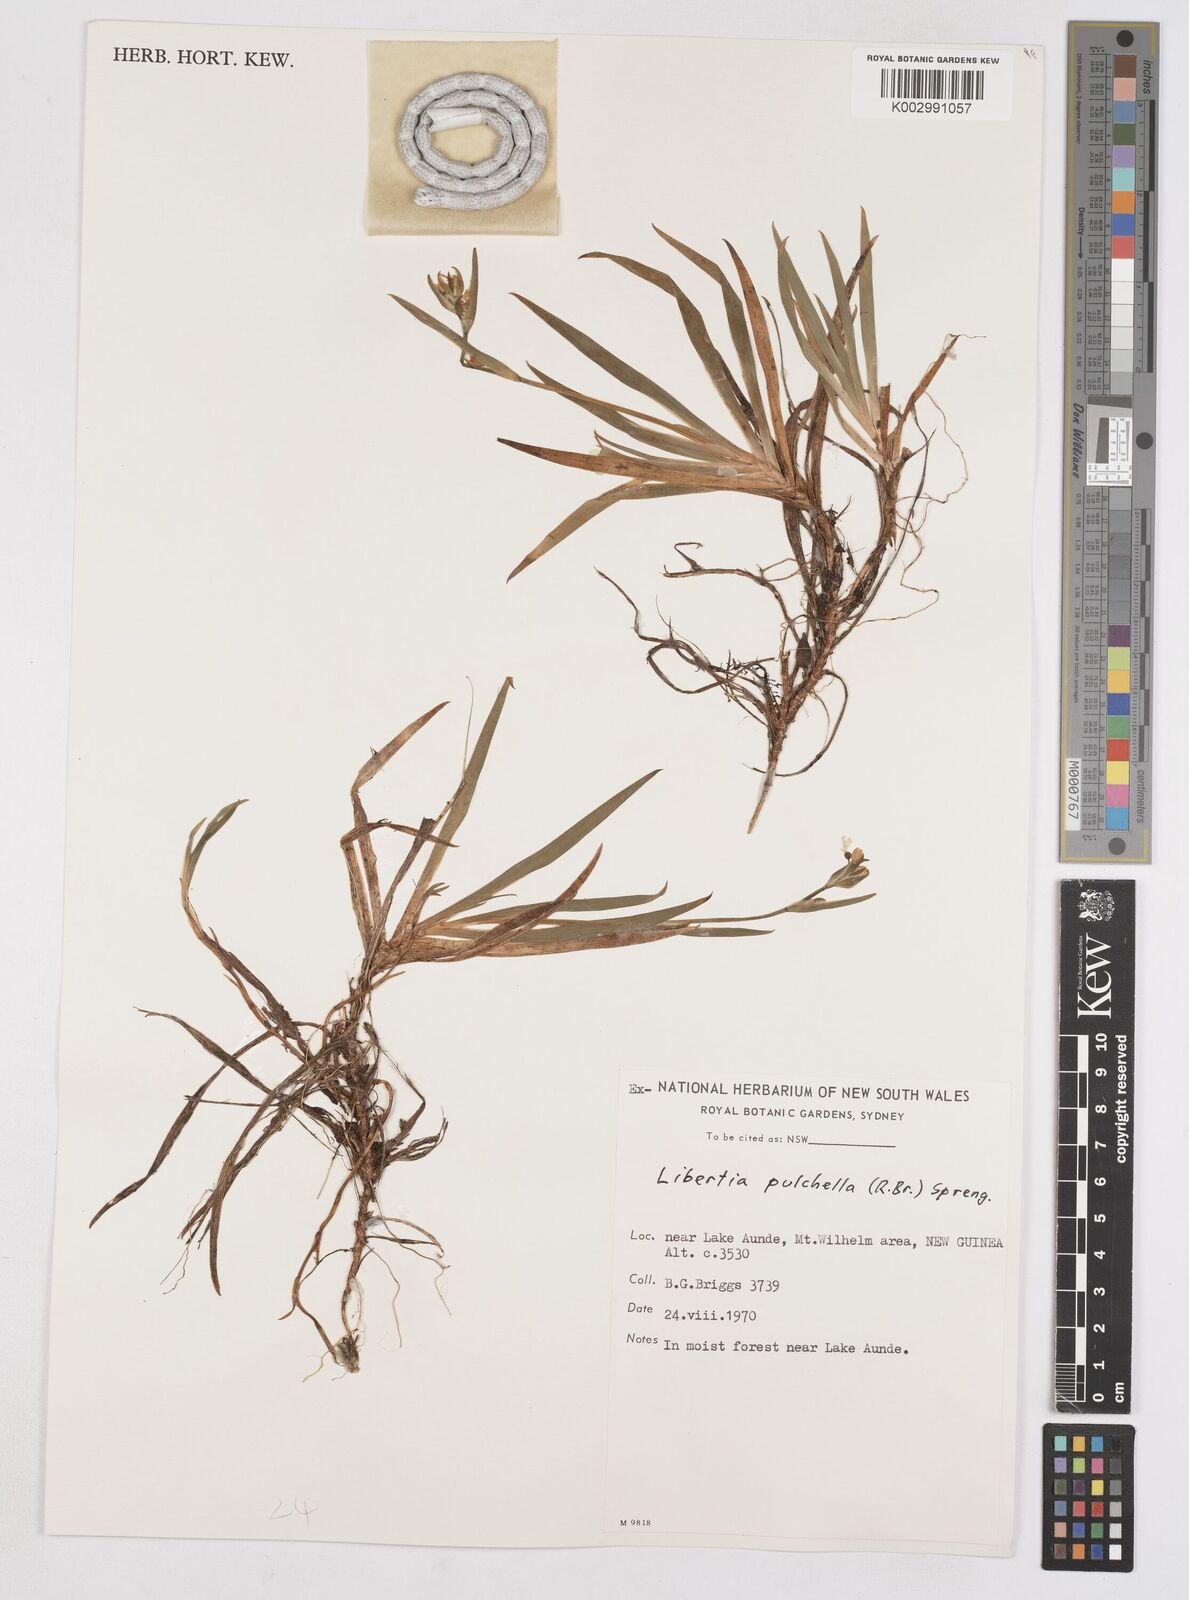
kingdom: Plantae
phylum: Tracheophyta
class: Liliopsida
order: Asparagales
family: Iridaceae
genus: Libertia
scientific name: Libertia pulchella
